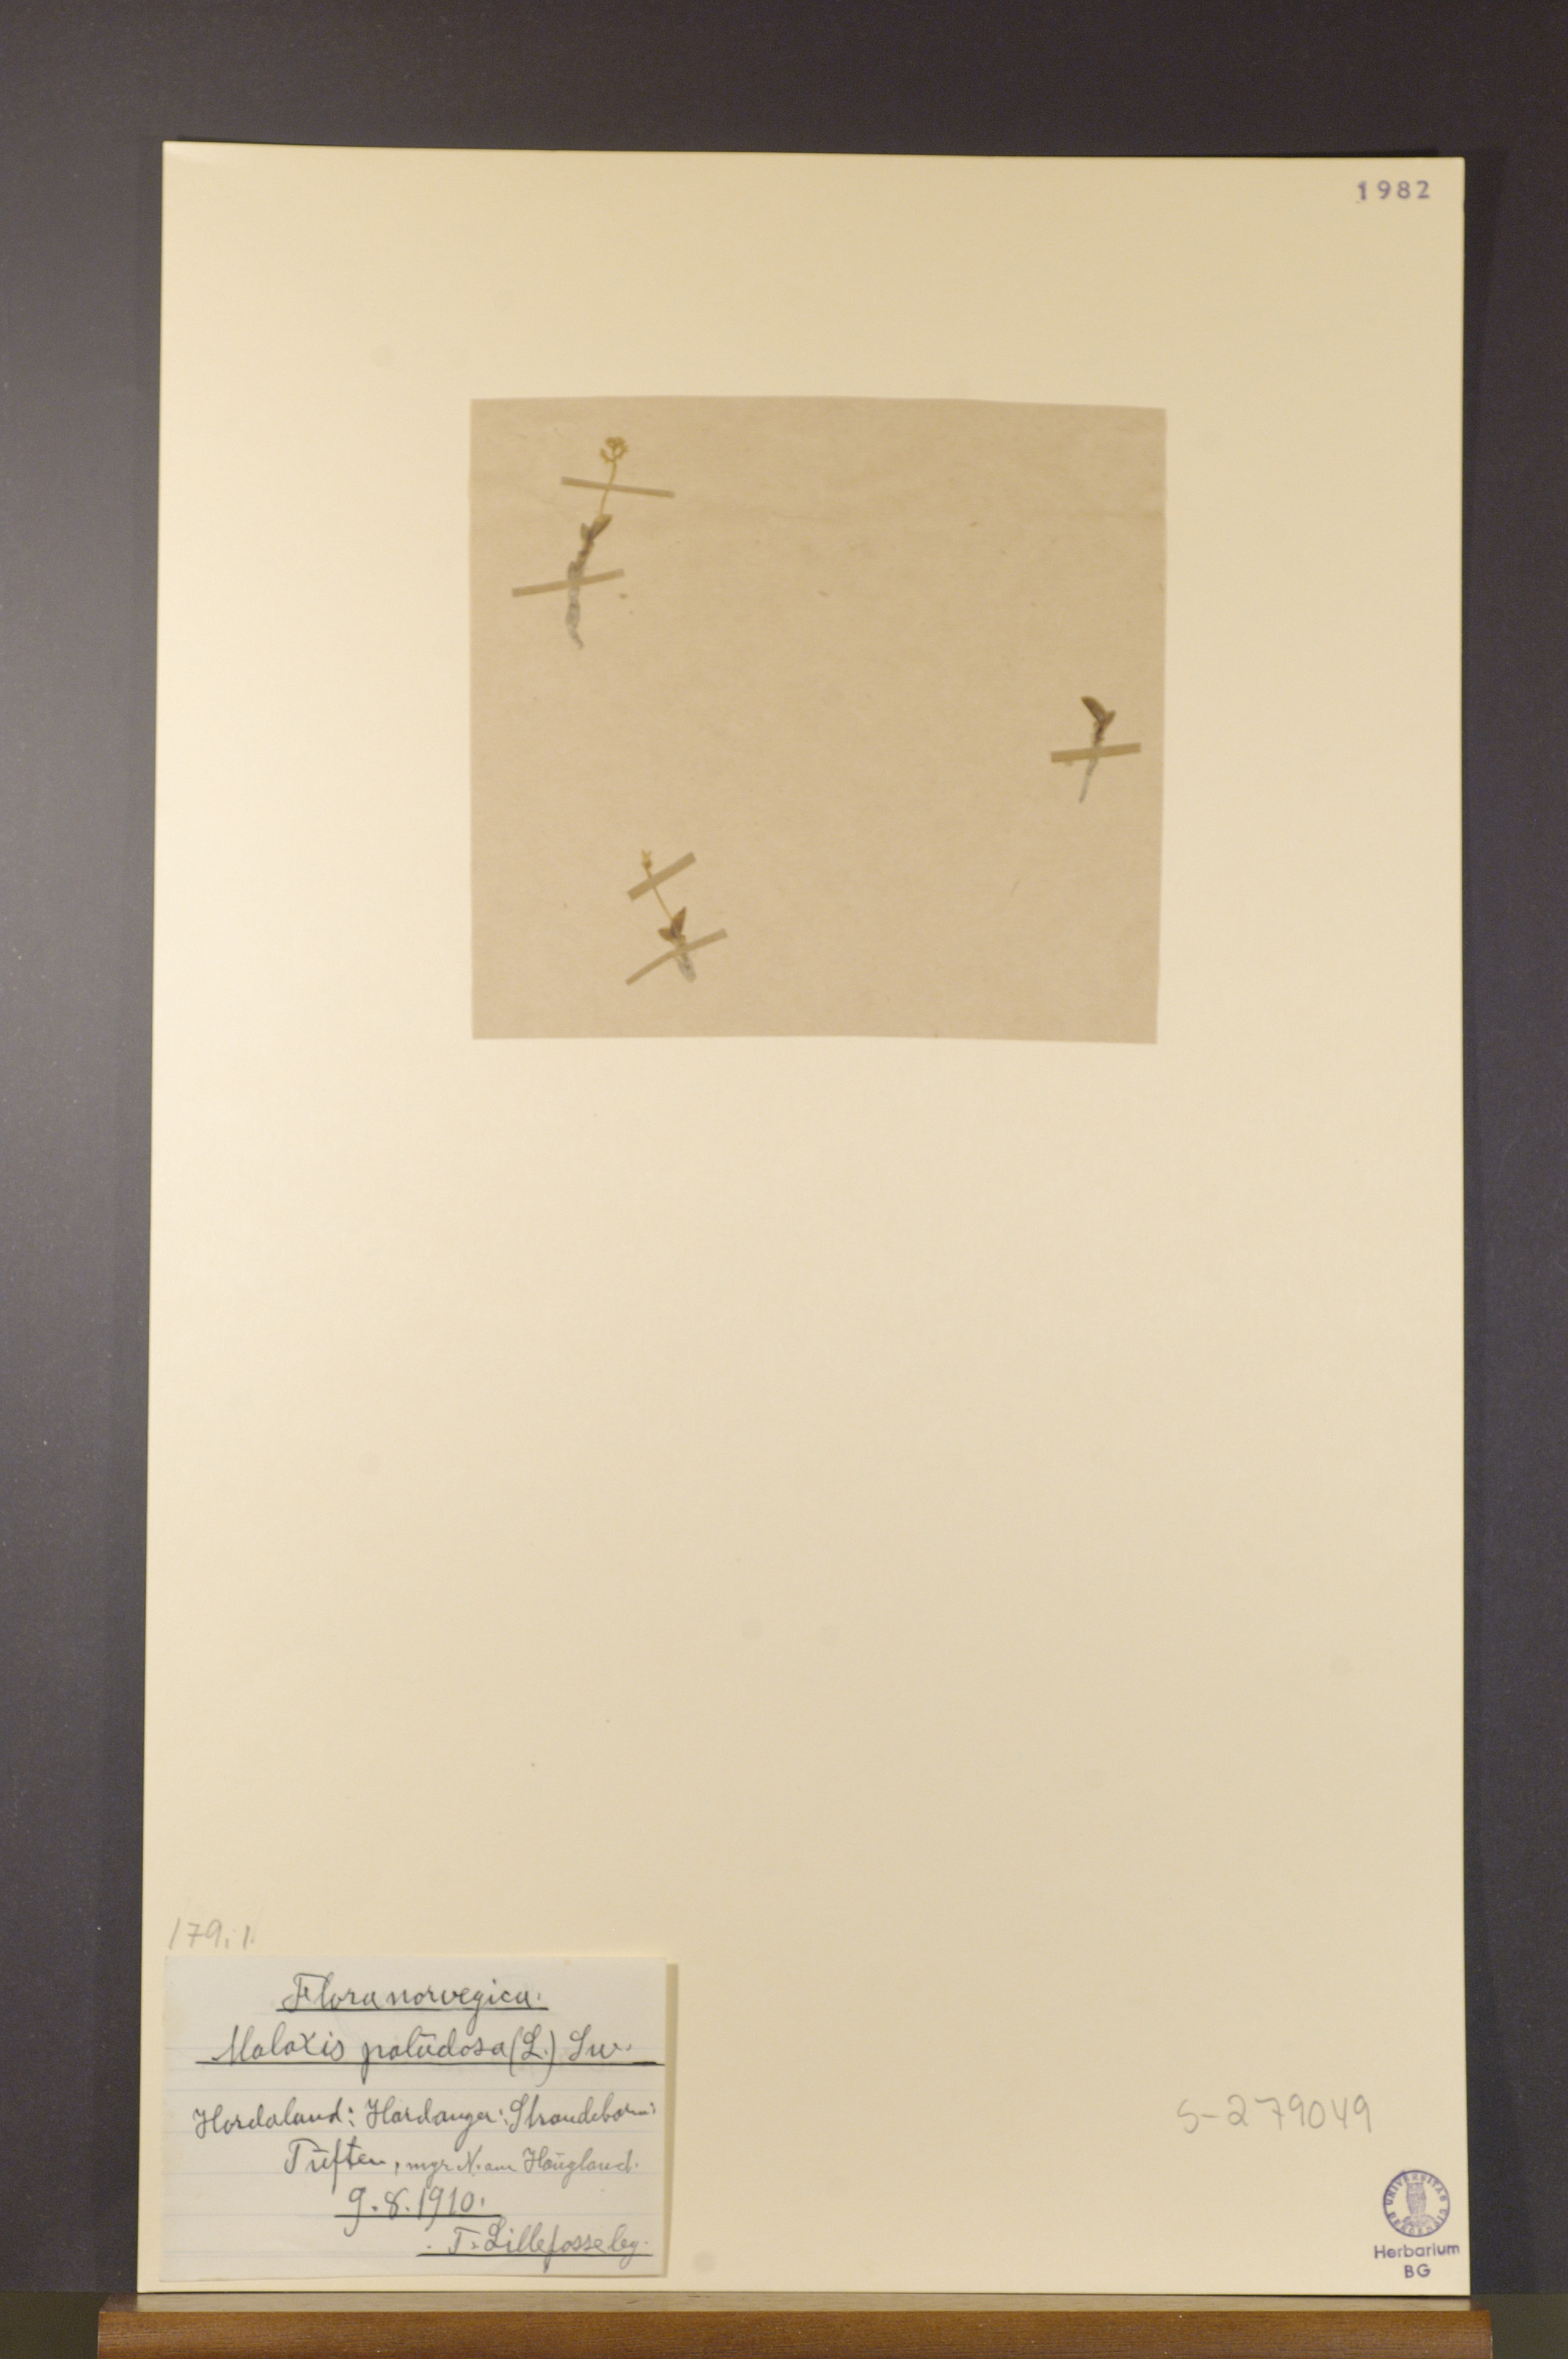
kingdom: Plantae
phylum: Tracheophyta
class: Liliopsida
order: Asparagales
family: Orchidaceae
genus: Hammarbya
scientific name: Hammarbya paludosa
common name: Bog orchid
